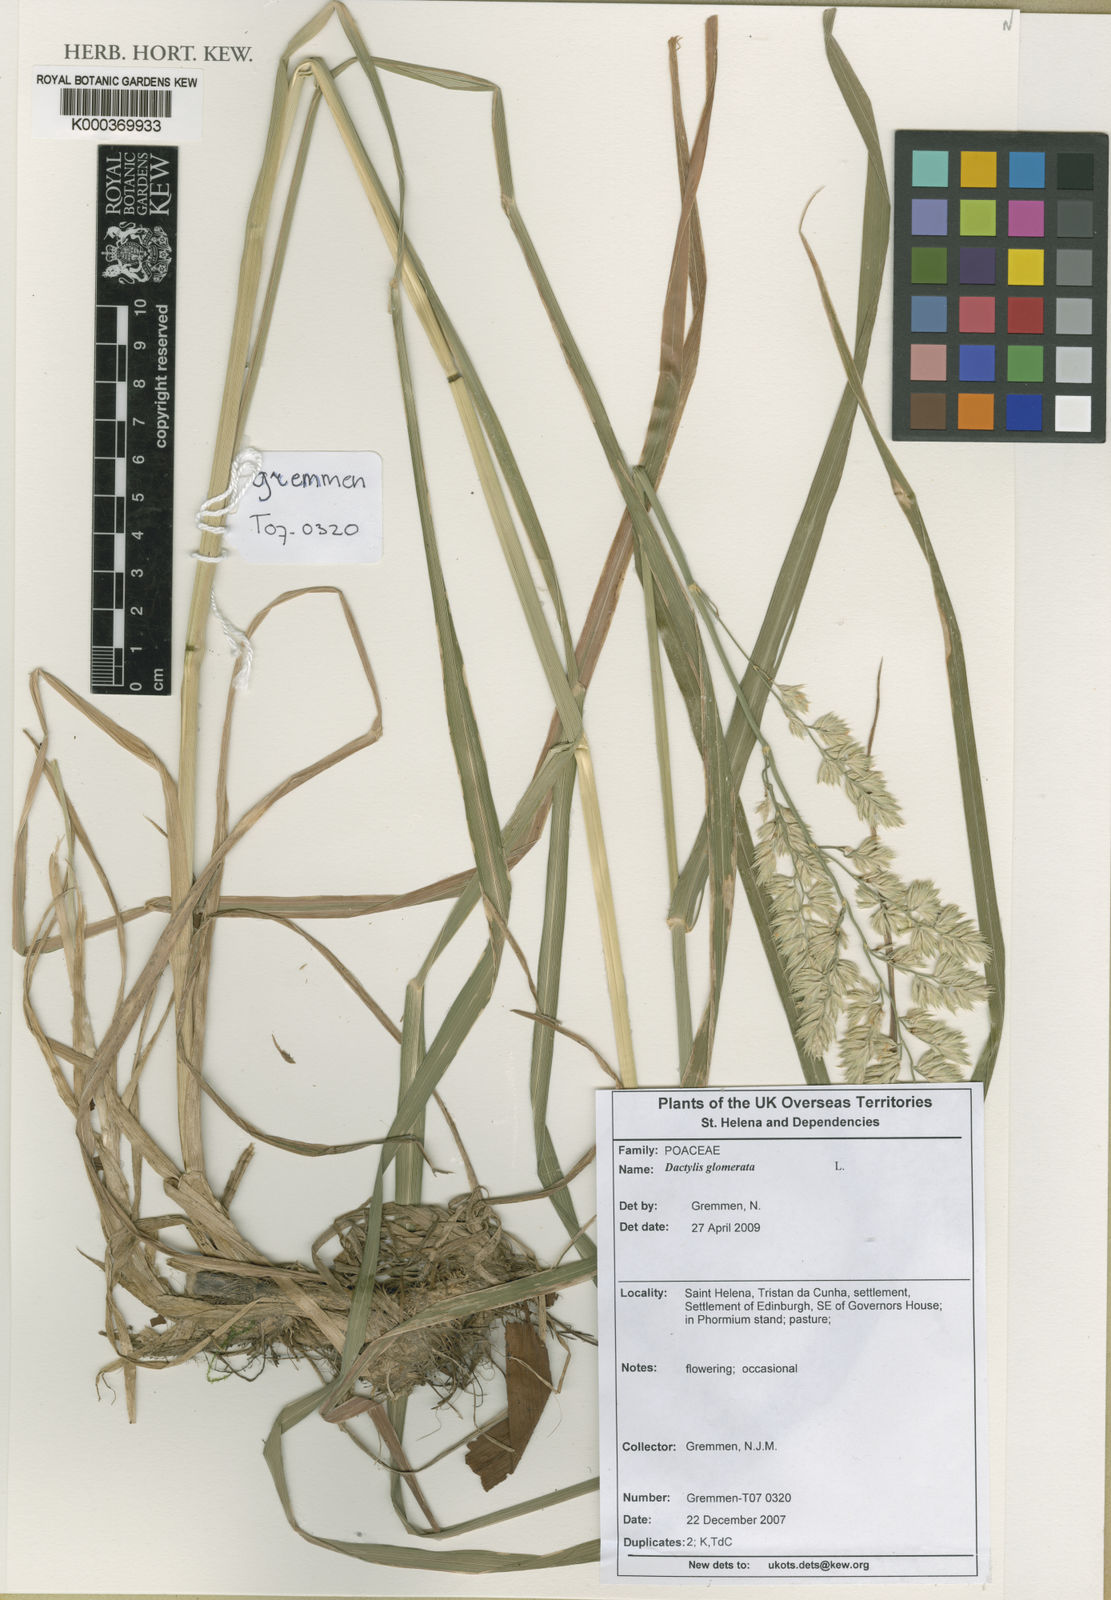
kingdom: Plantae
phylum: Tracheophyta
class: Liliopsida
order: Poales
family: Poaceae
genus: Dactylis
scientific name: Dactylis glomerata
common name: Orchardgrass
